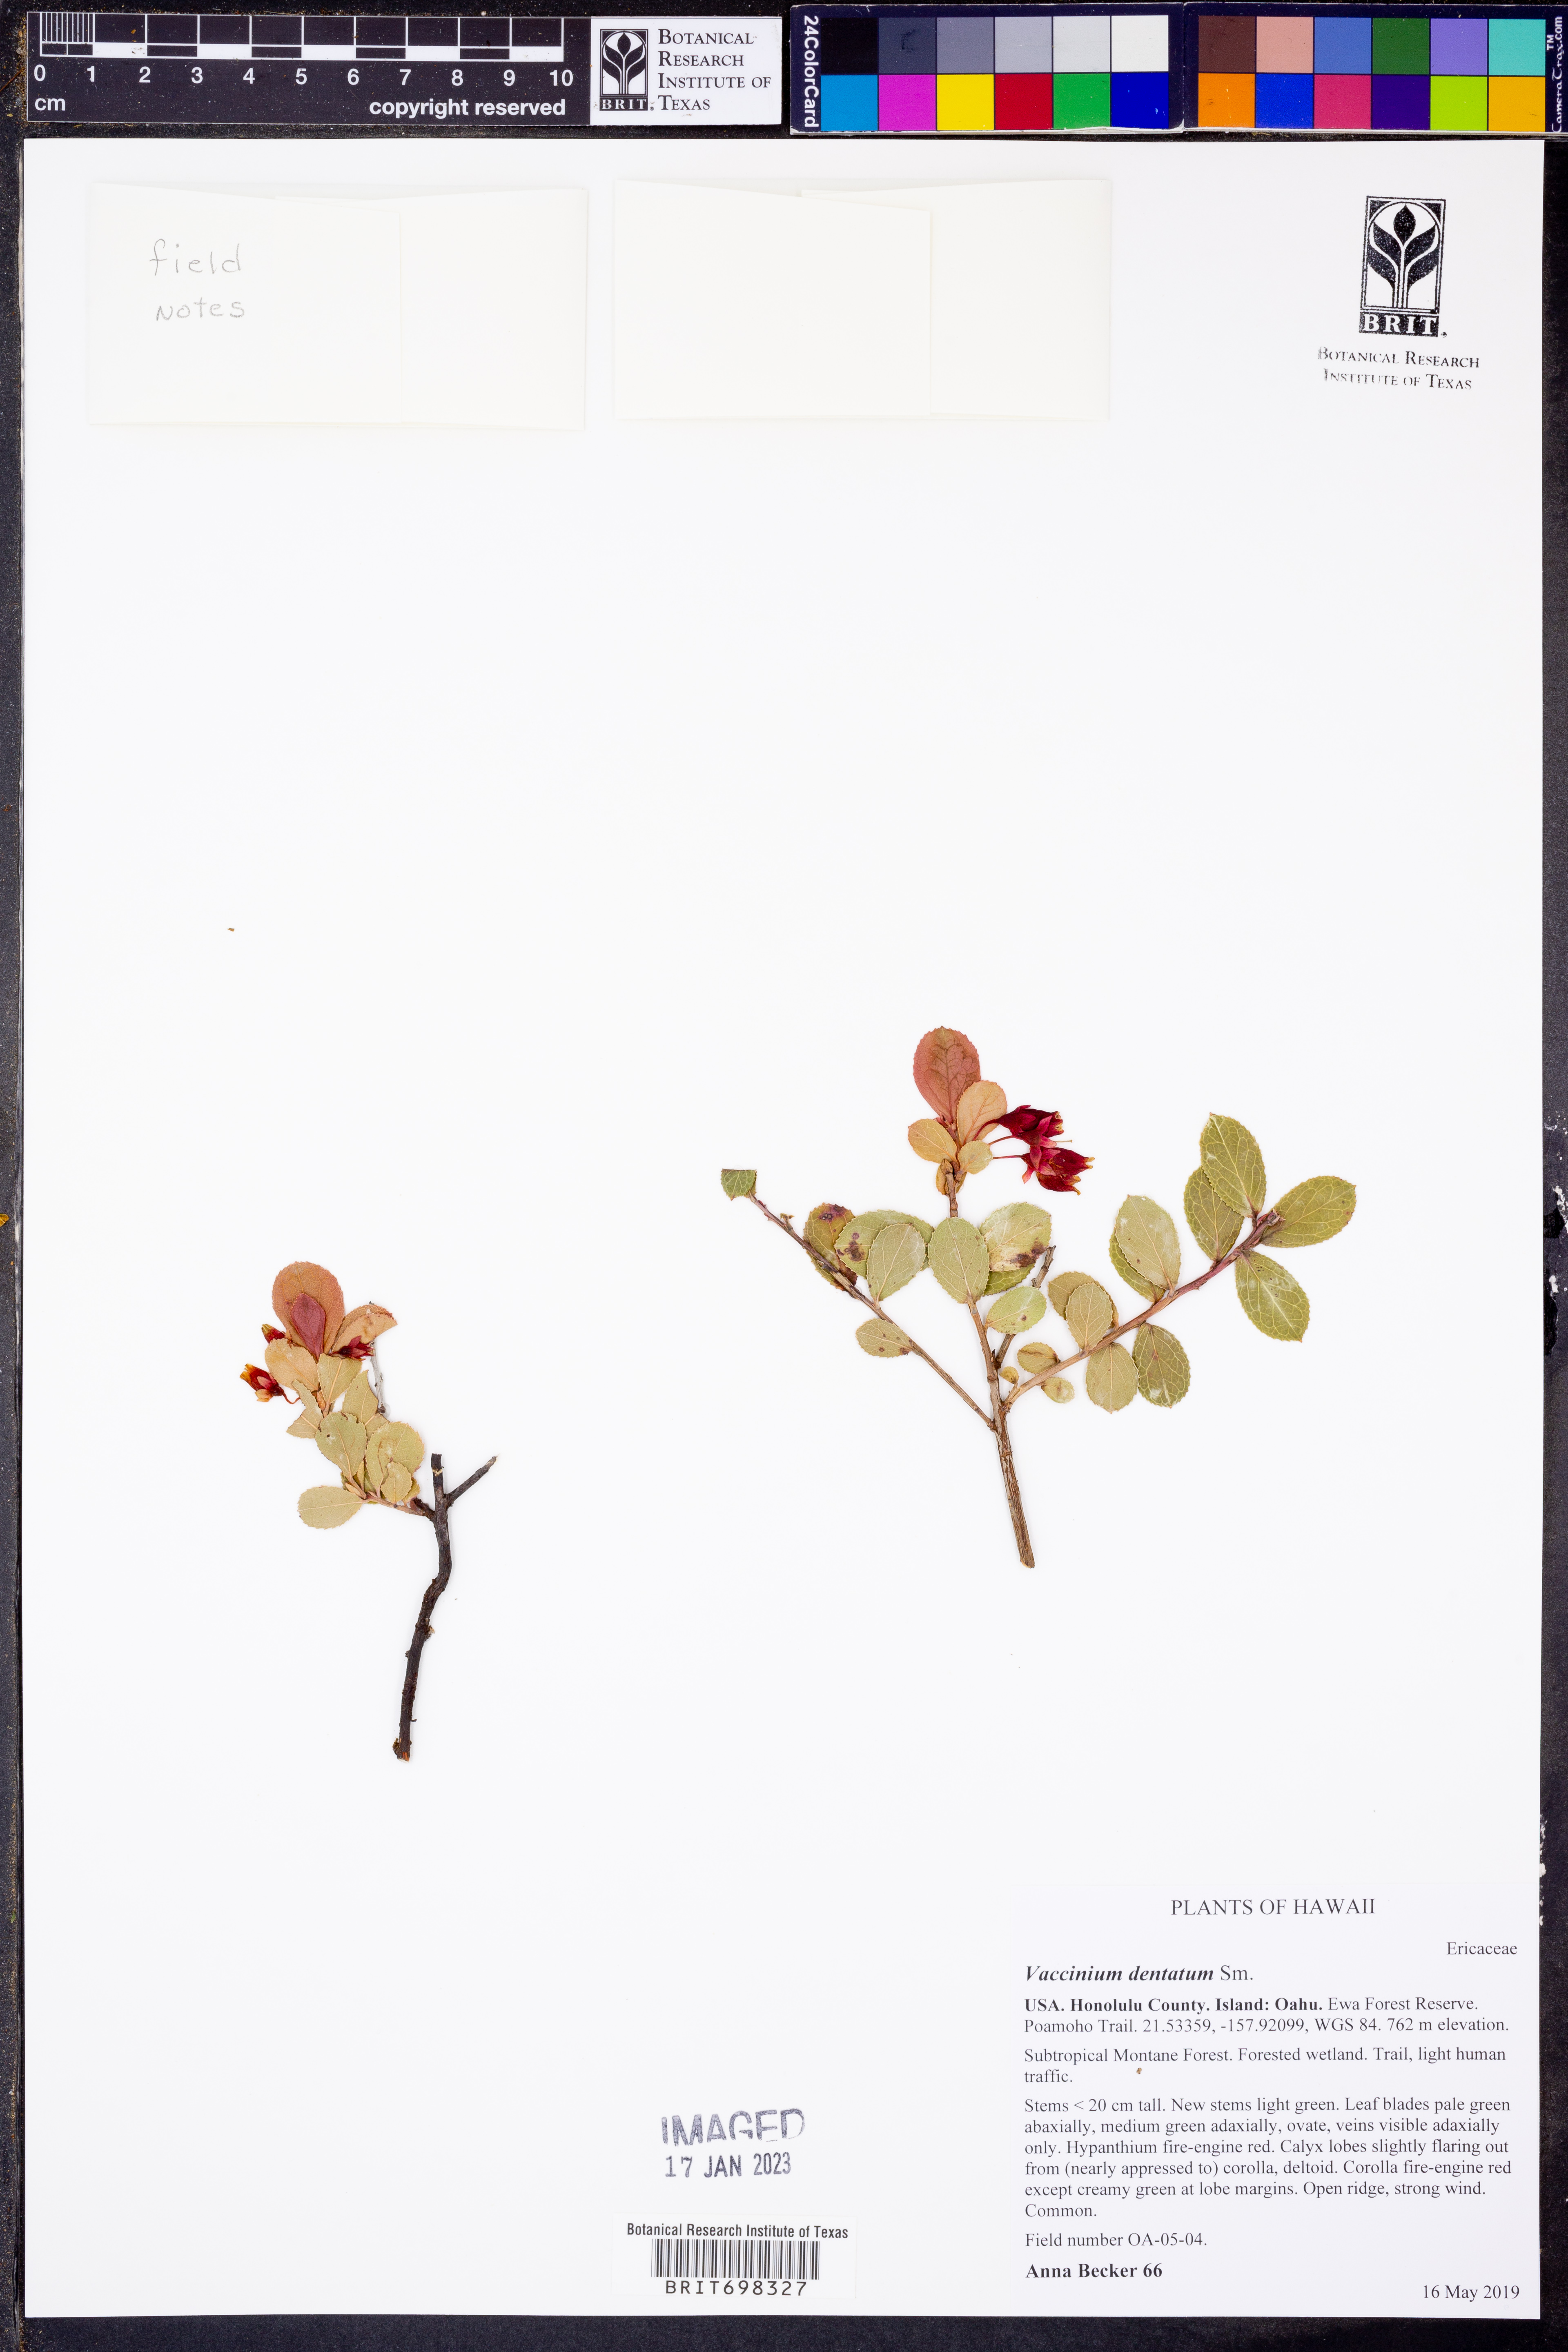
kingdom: Plantae
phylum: Tracheophyta
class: Magnoliopsida
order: Ericales
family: Ericaceae
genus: Vaccinium
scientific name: Vaccinium dentatum
